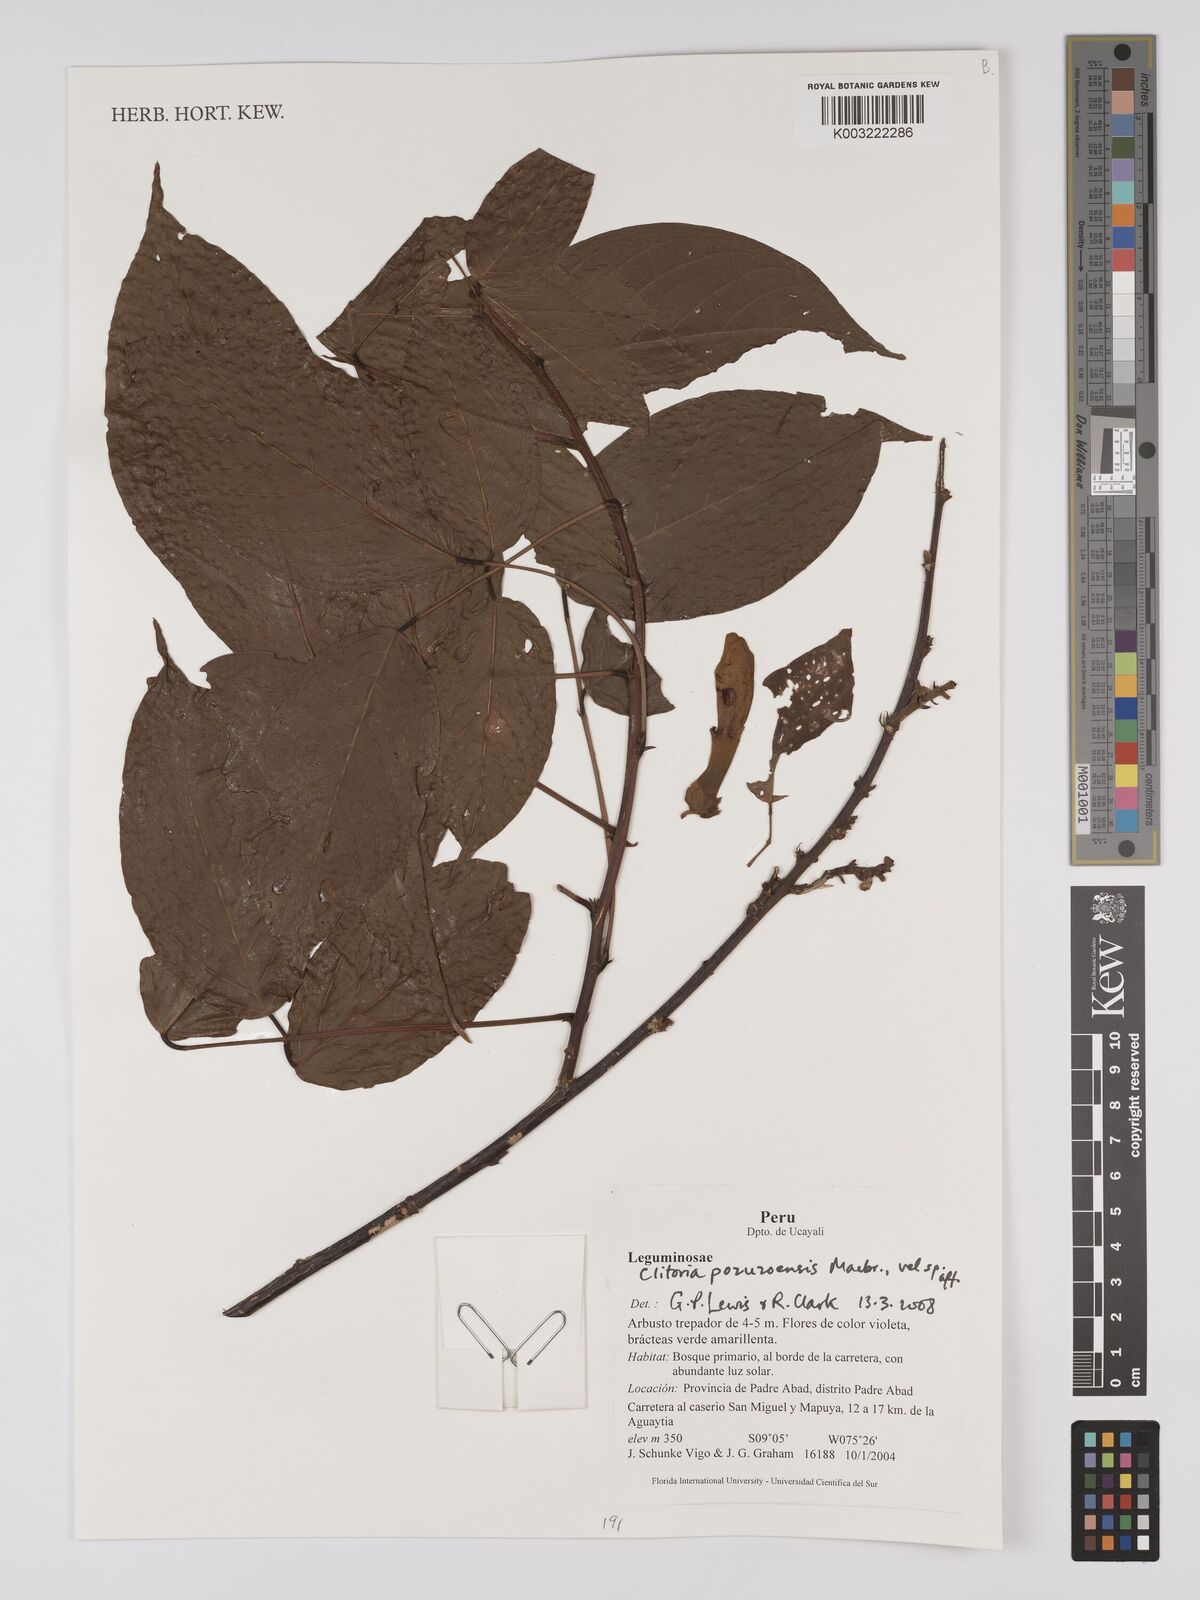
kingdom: Plantae
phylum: Tracheophyta
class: Magnoliopsida
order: Fabales
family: Fabaceae
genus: Clitoria
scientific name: Clitoria pozuzoensis
